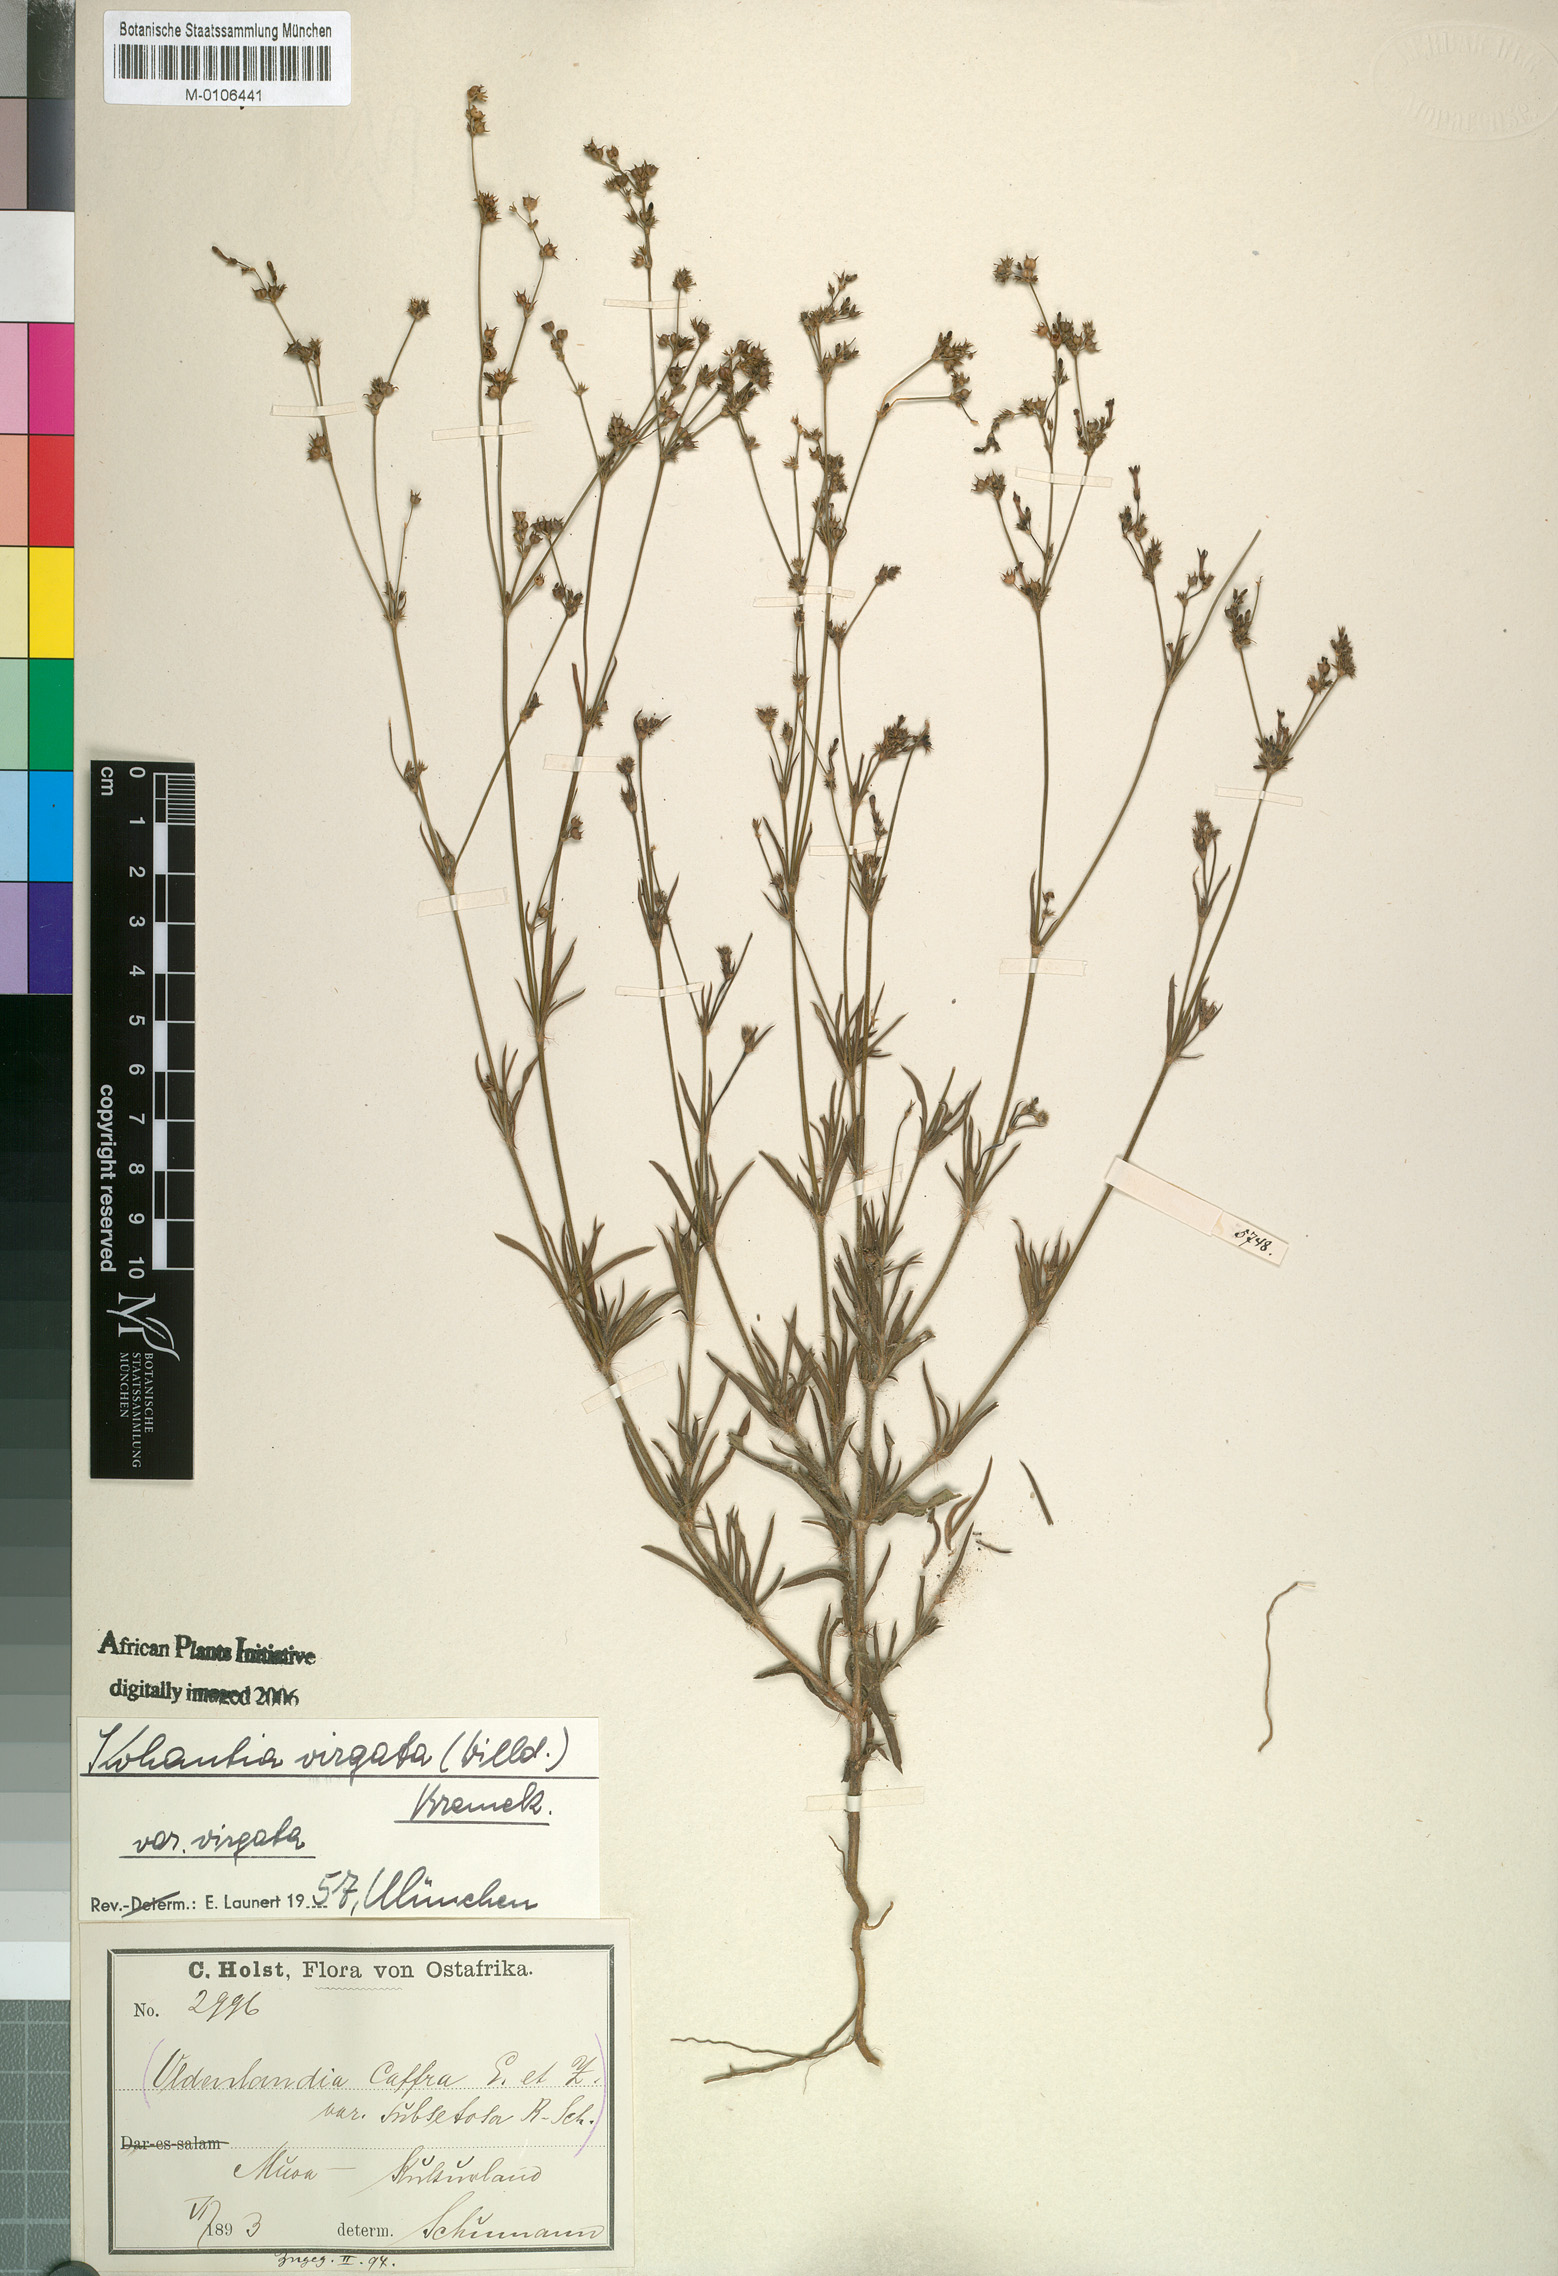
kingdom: Plantae
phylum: Tracheophyta
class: Magnoliopsida
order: Gentianales
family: Rubiaceae
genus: Cordylostigma
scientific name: Cordylostigma virgatum
